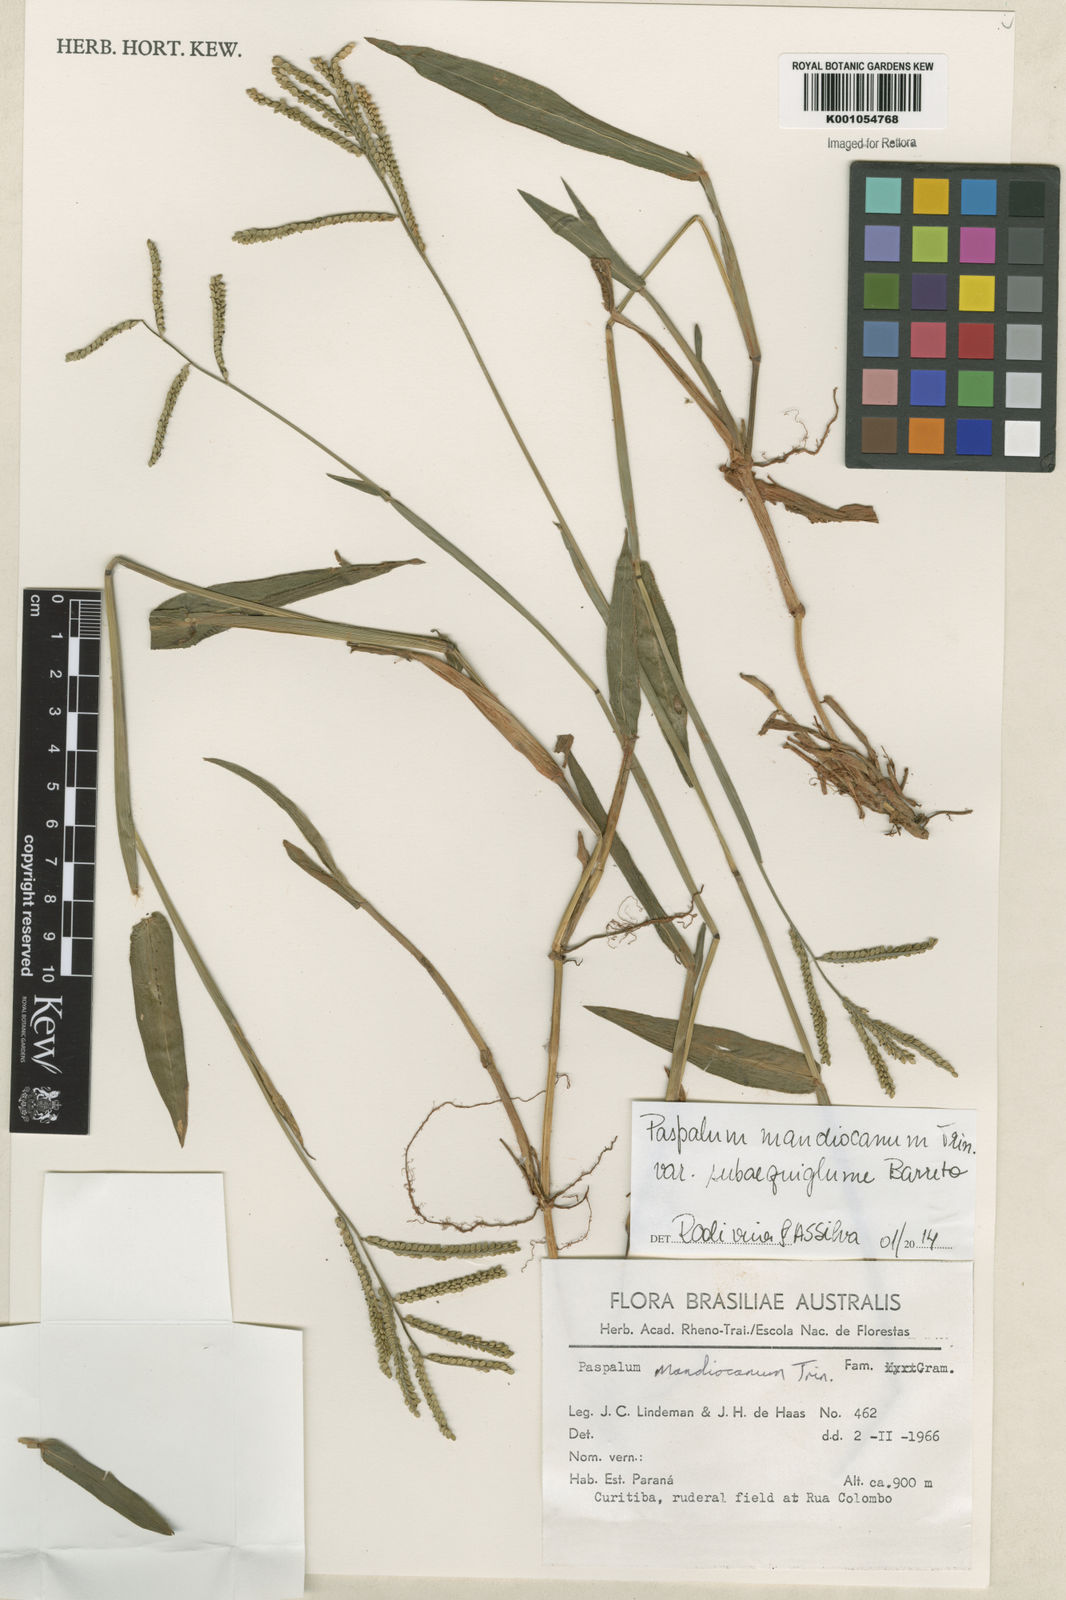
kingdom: Plantae
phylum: Tracheophyta
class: Liliopsida
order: Poales
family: Poaceae
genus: Paspalum
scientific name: Paspalum mandiocanum
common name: Paspalum
